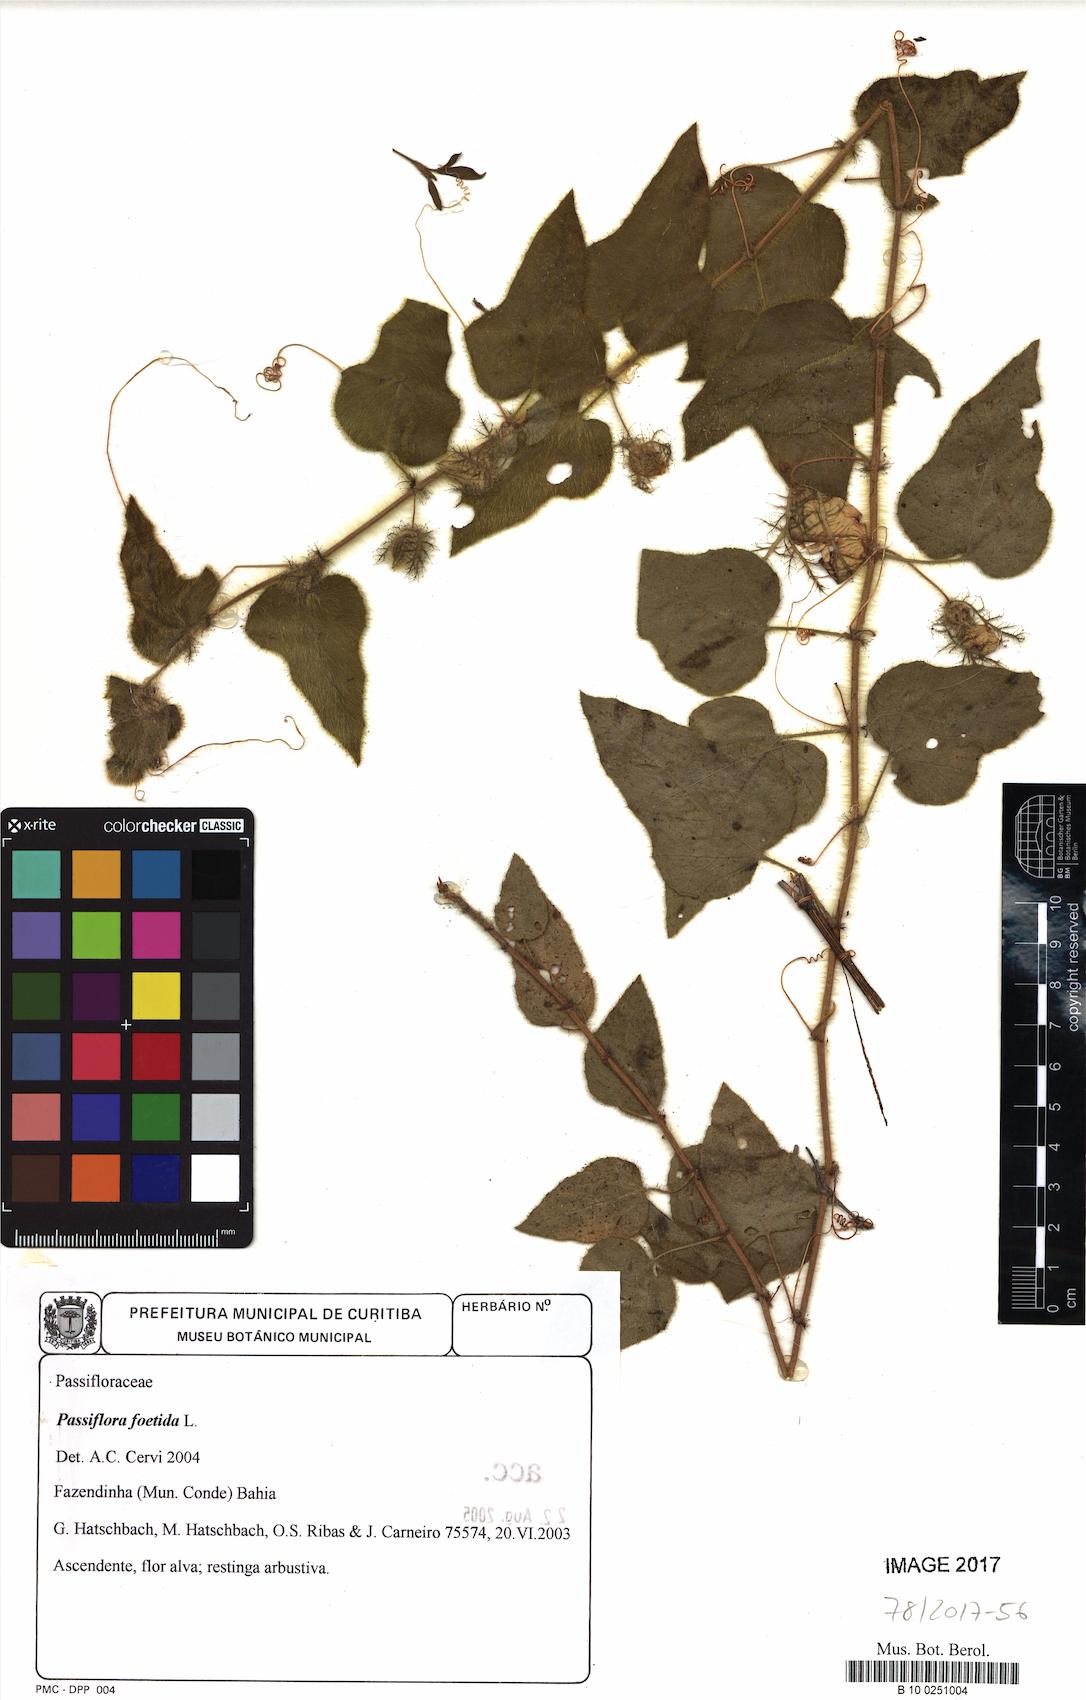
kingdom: Plantae
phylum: Tracheophyta
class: Magnoliopsida
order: Malpighiales
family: Passifloraceae
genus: Passiflora
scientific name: Passiflora foetida
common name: Fetid passionflower
